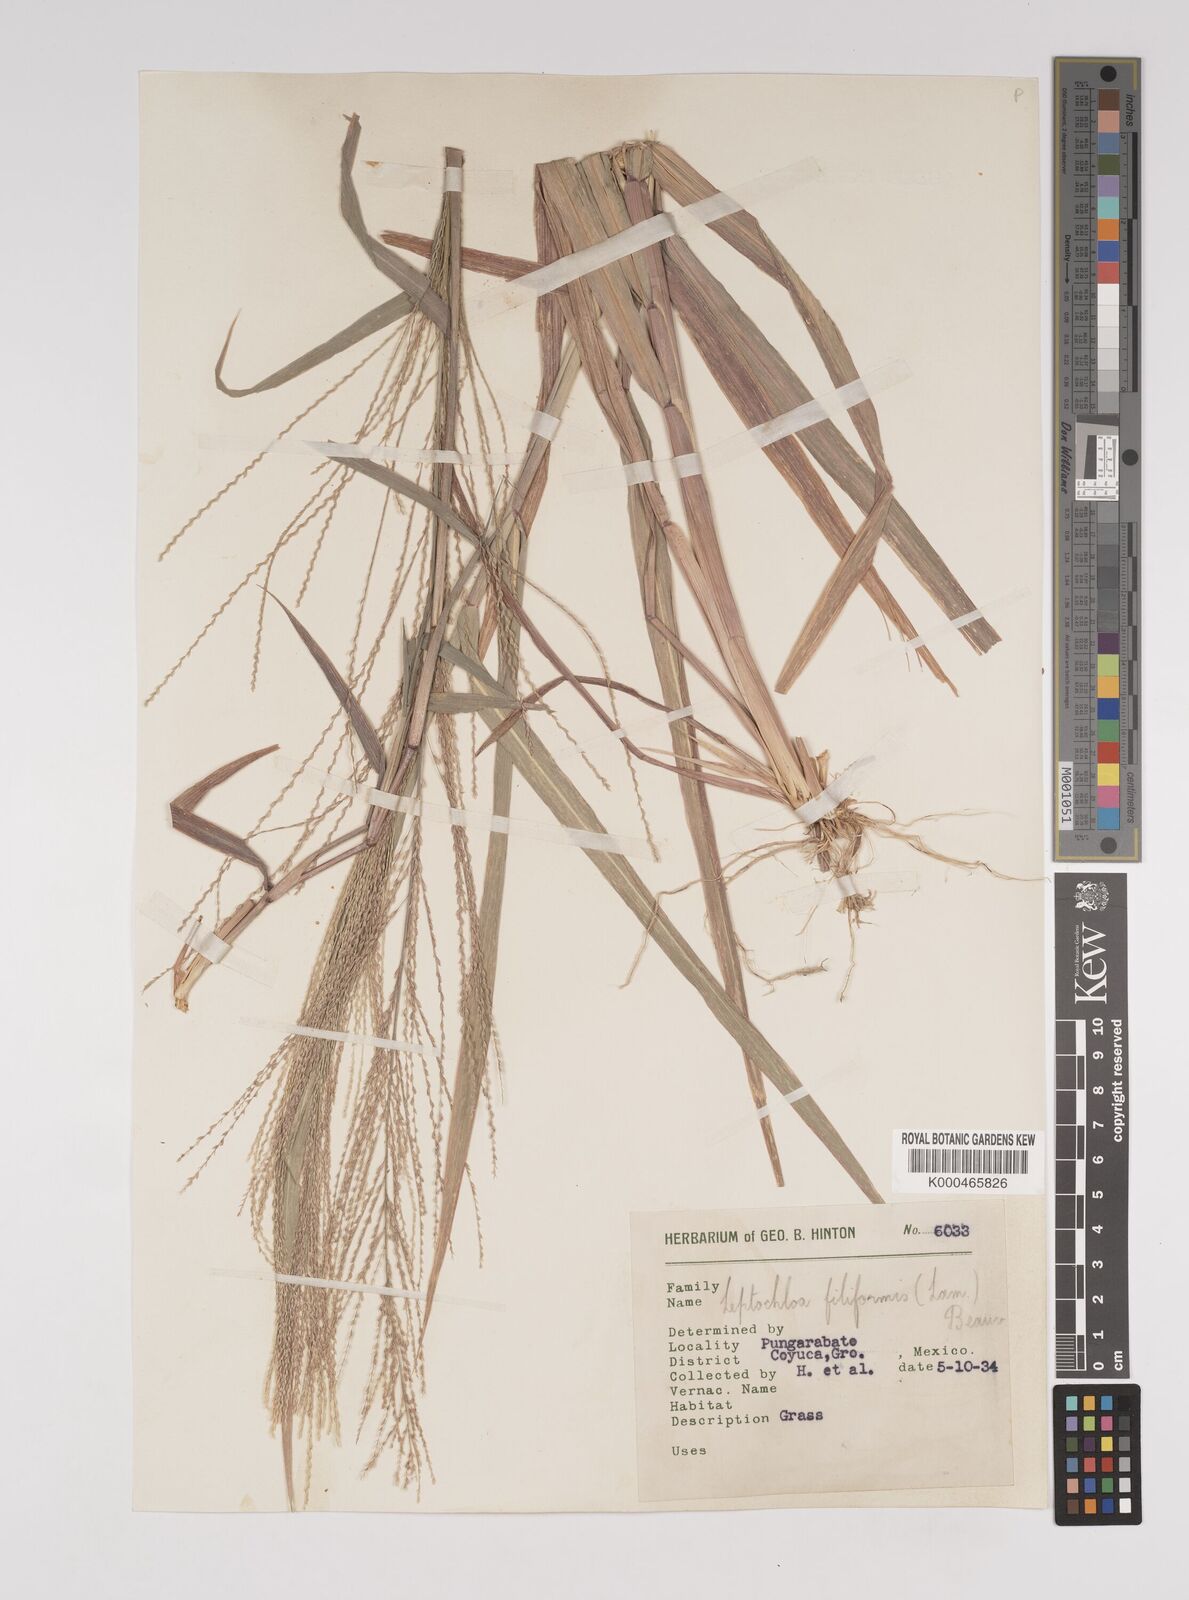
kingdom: Plantae
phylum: Tracheophyta
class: Liliopsida
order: Poales
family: Poaceae
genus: Leptochloa
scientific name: Leptochloa panicea
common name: Mucronate sprangletop
